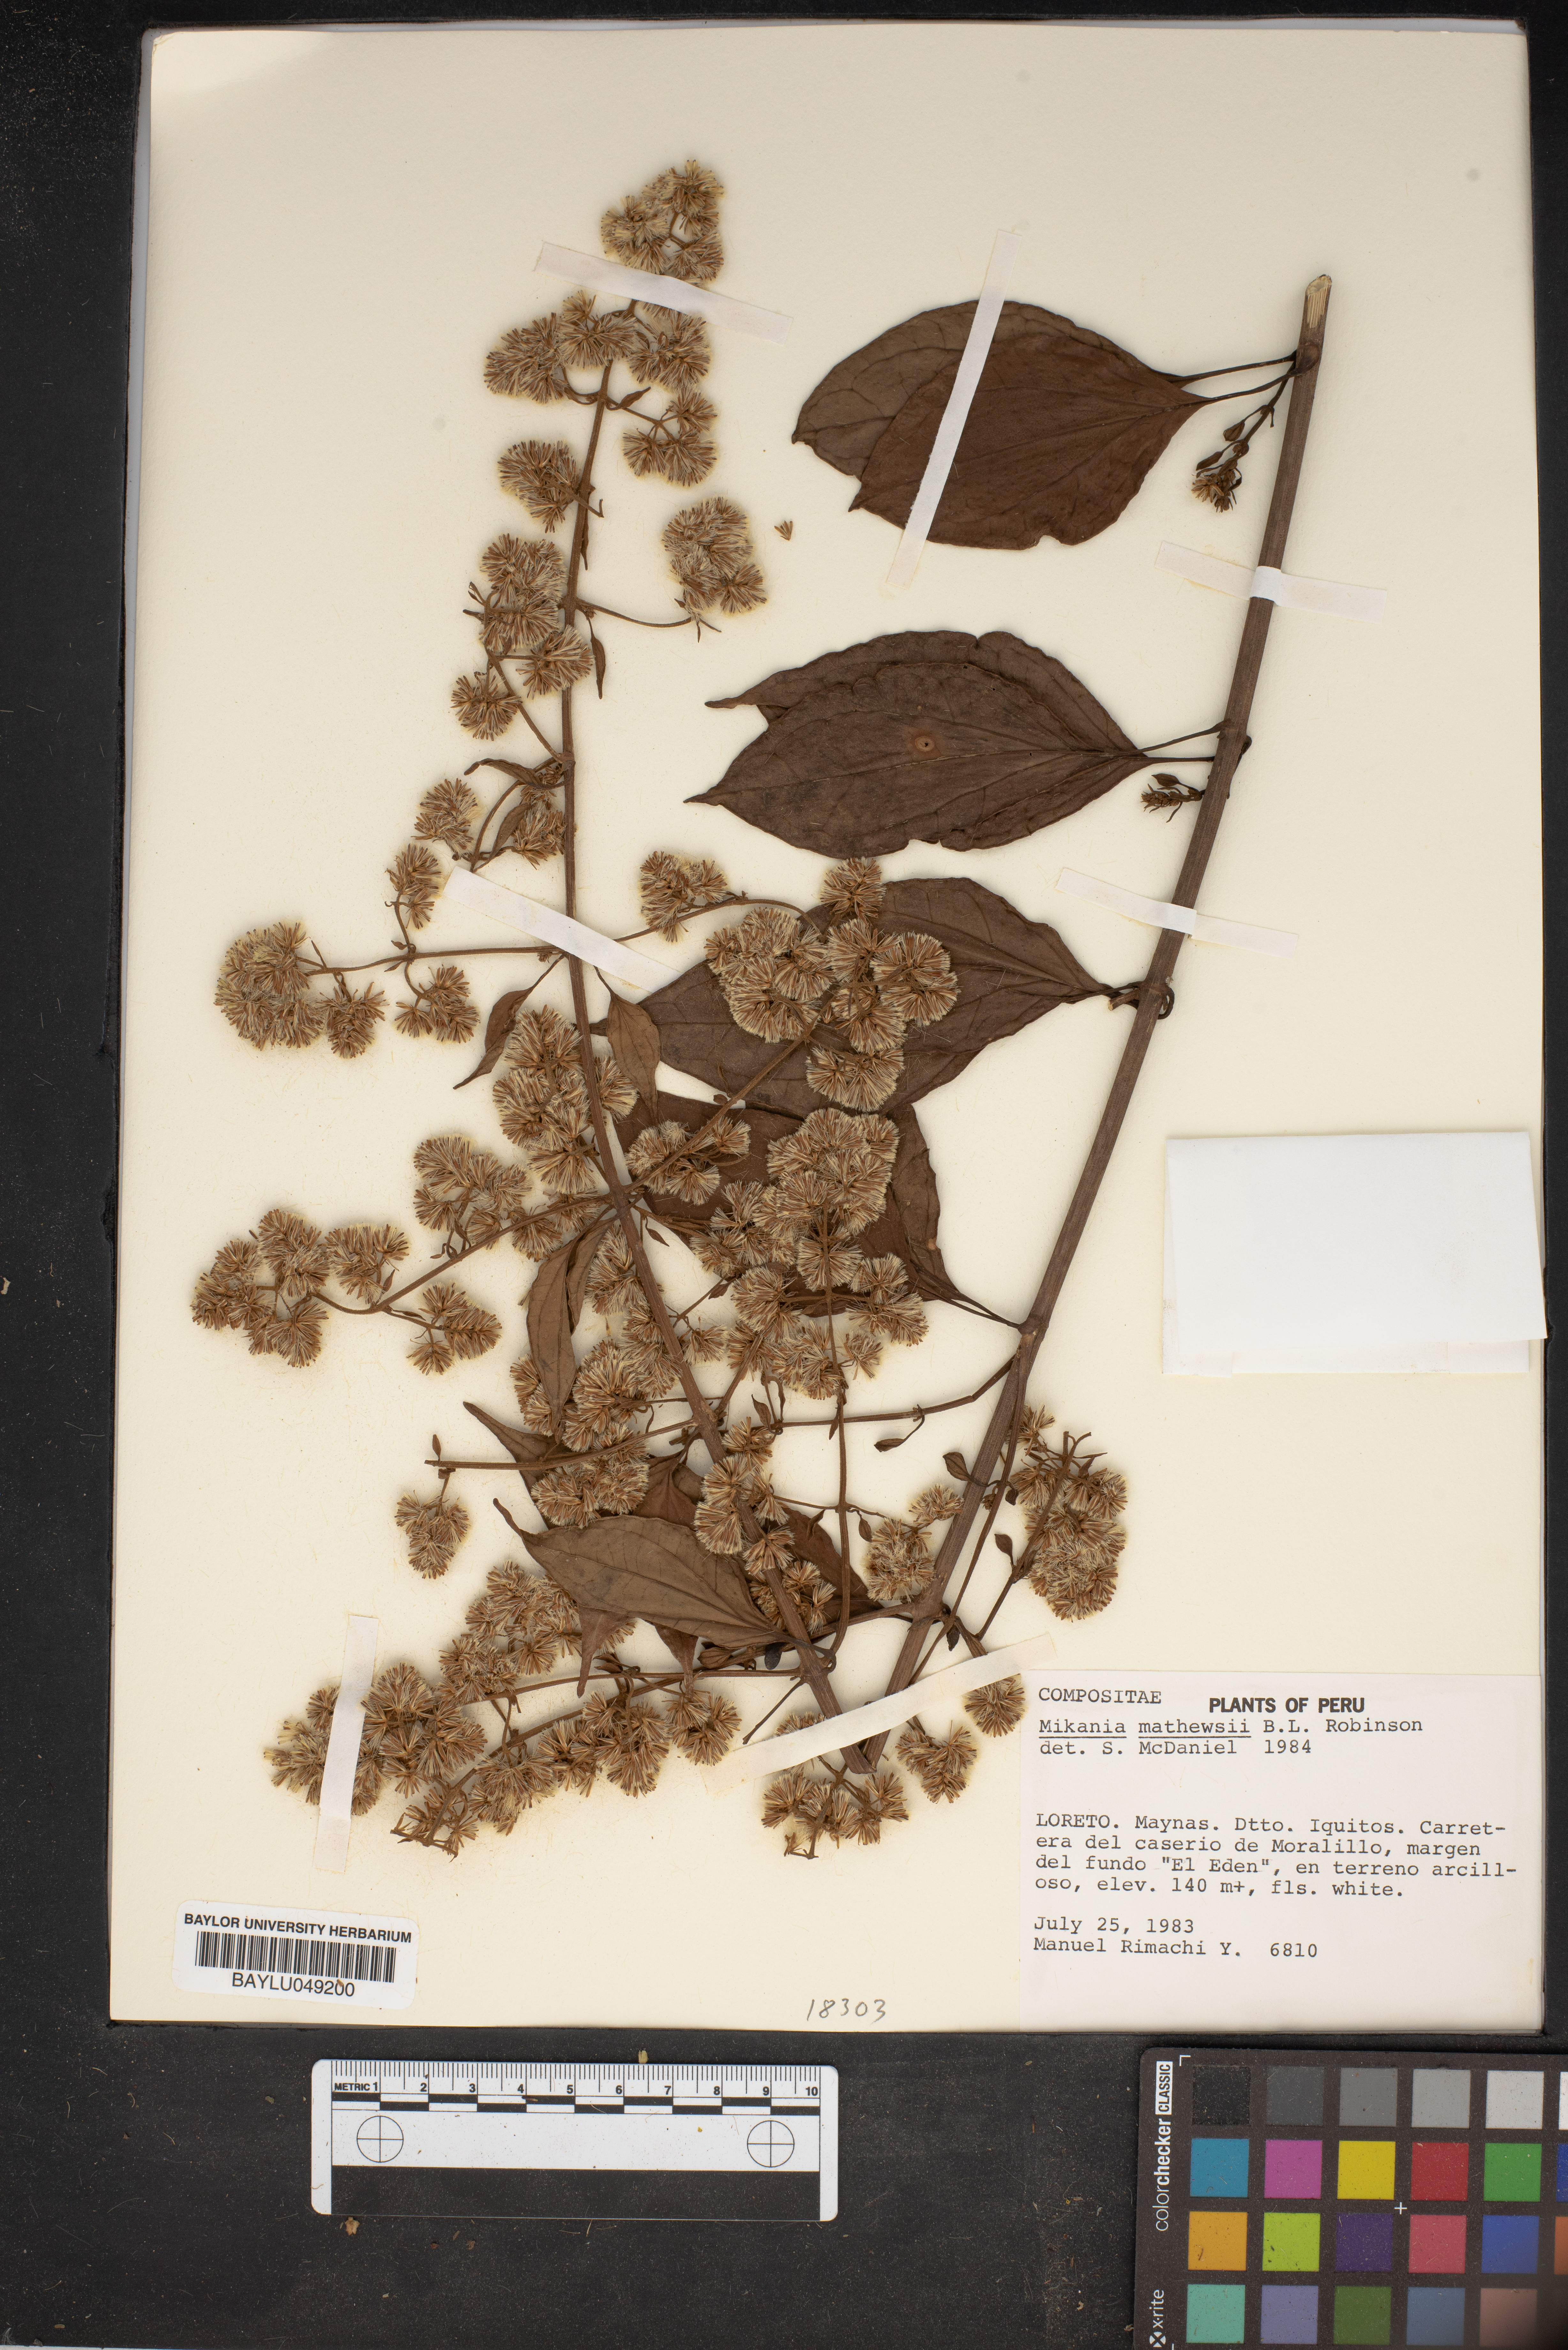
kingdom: Plantae
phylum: Tracheophyta
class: Magnoliopsida
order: Asterales
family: Asteraceae
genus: Mikania
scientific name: Mikania mathewsii
